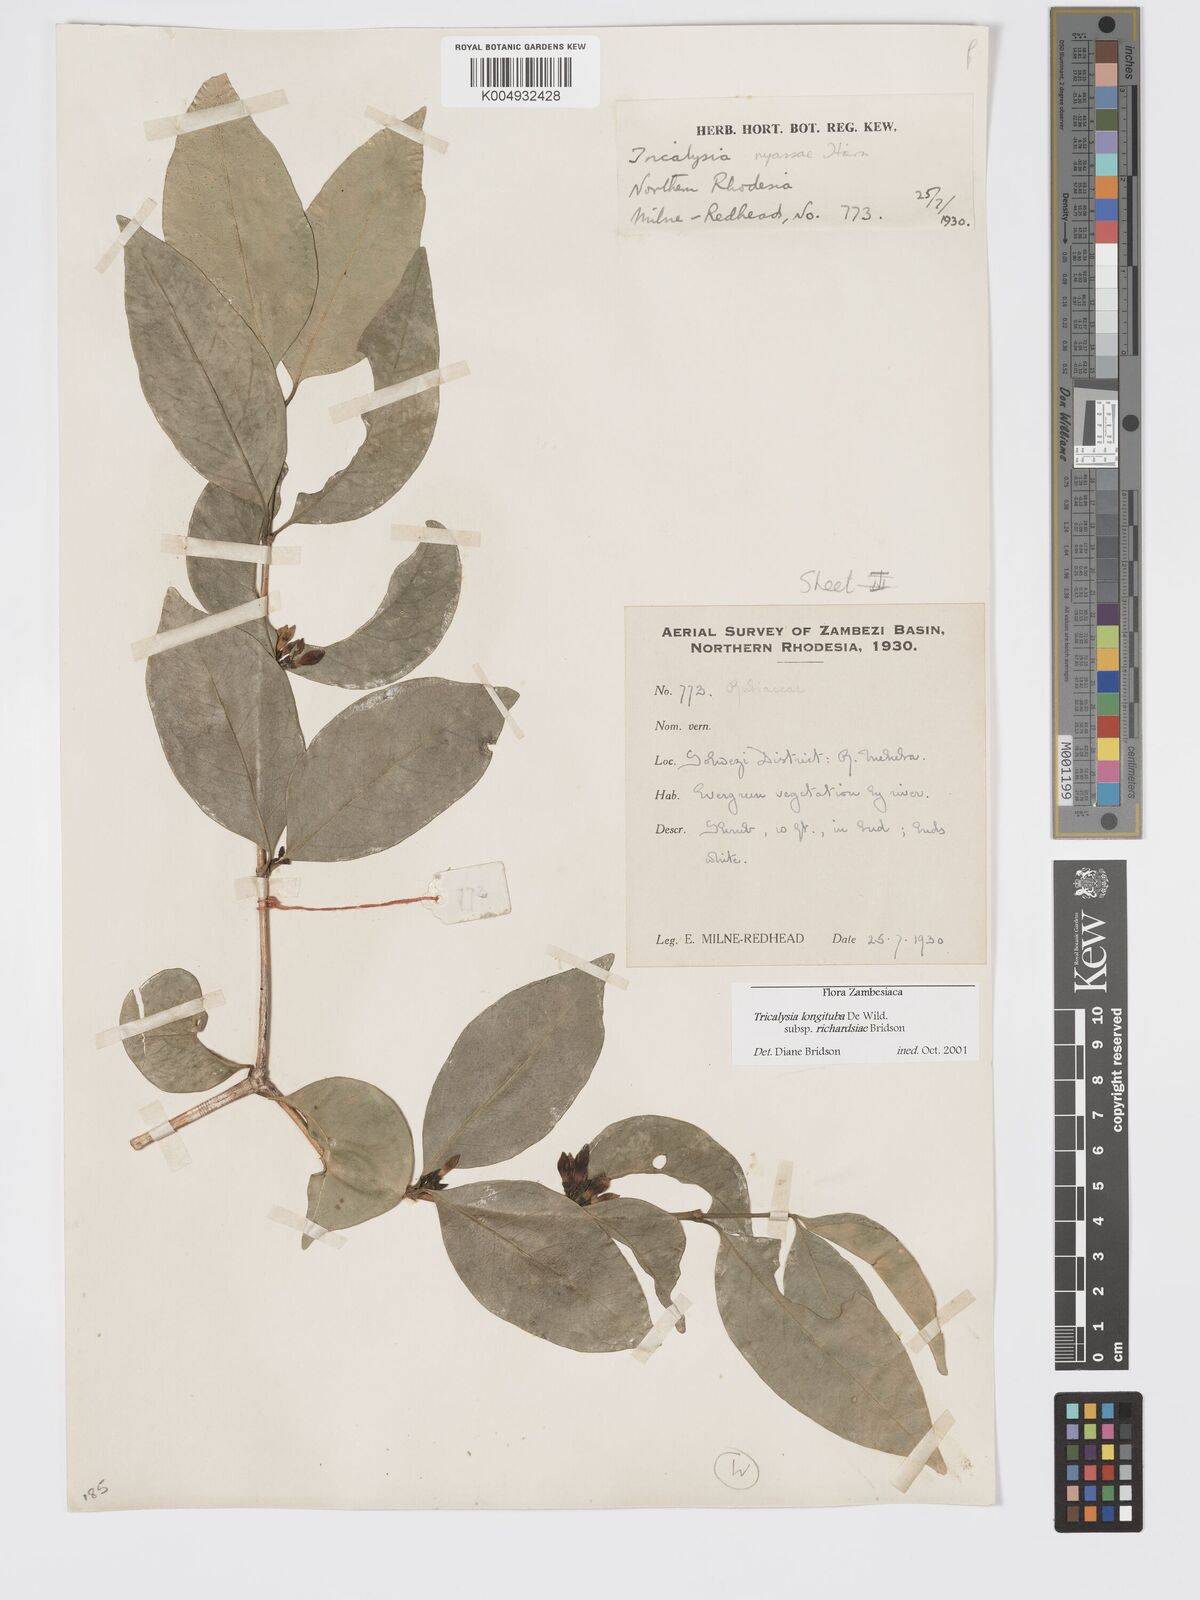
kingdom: Plantae
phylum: Tracheophyta
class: Magnoliopsida
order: Gentianales
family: Rubiaceae
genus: Tricalysia
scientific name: Tricalysia
